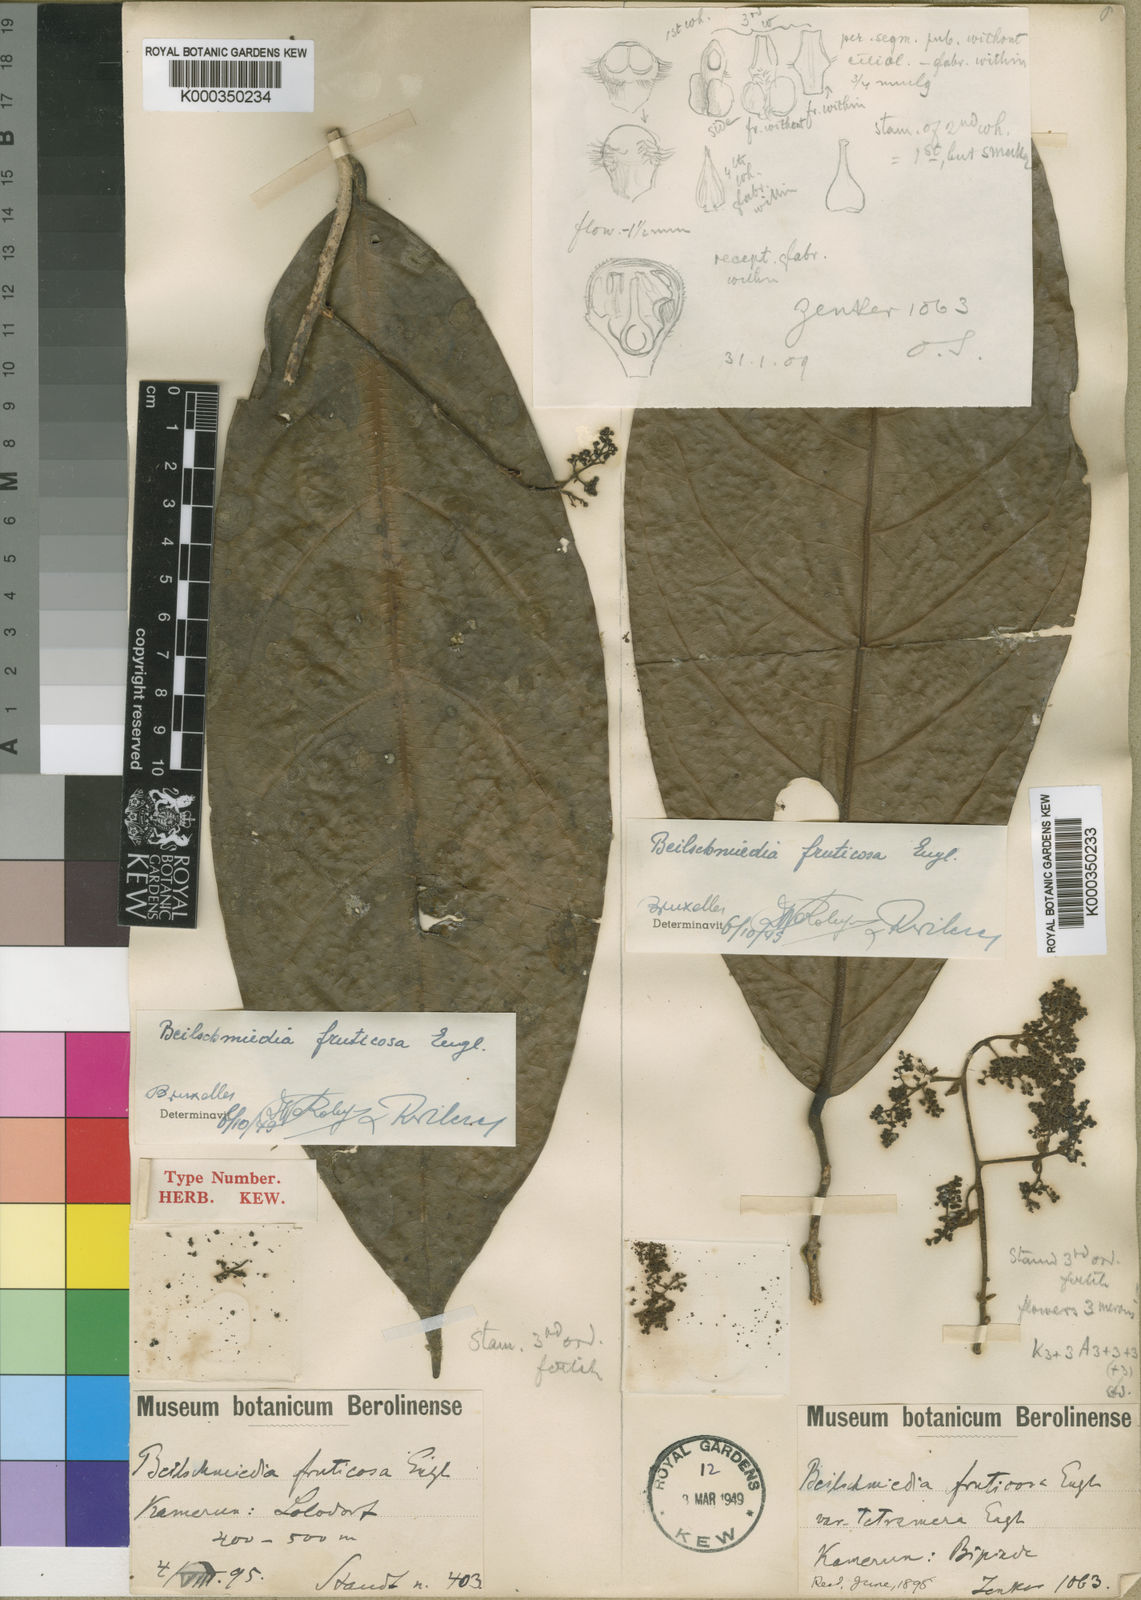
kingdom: Plantae
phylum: Tracheophyta
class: Magnoliopsida
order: Laurales
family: Lauraceae
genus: Beilschmiedia
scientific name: Beilschmiedia fruticosa
